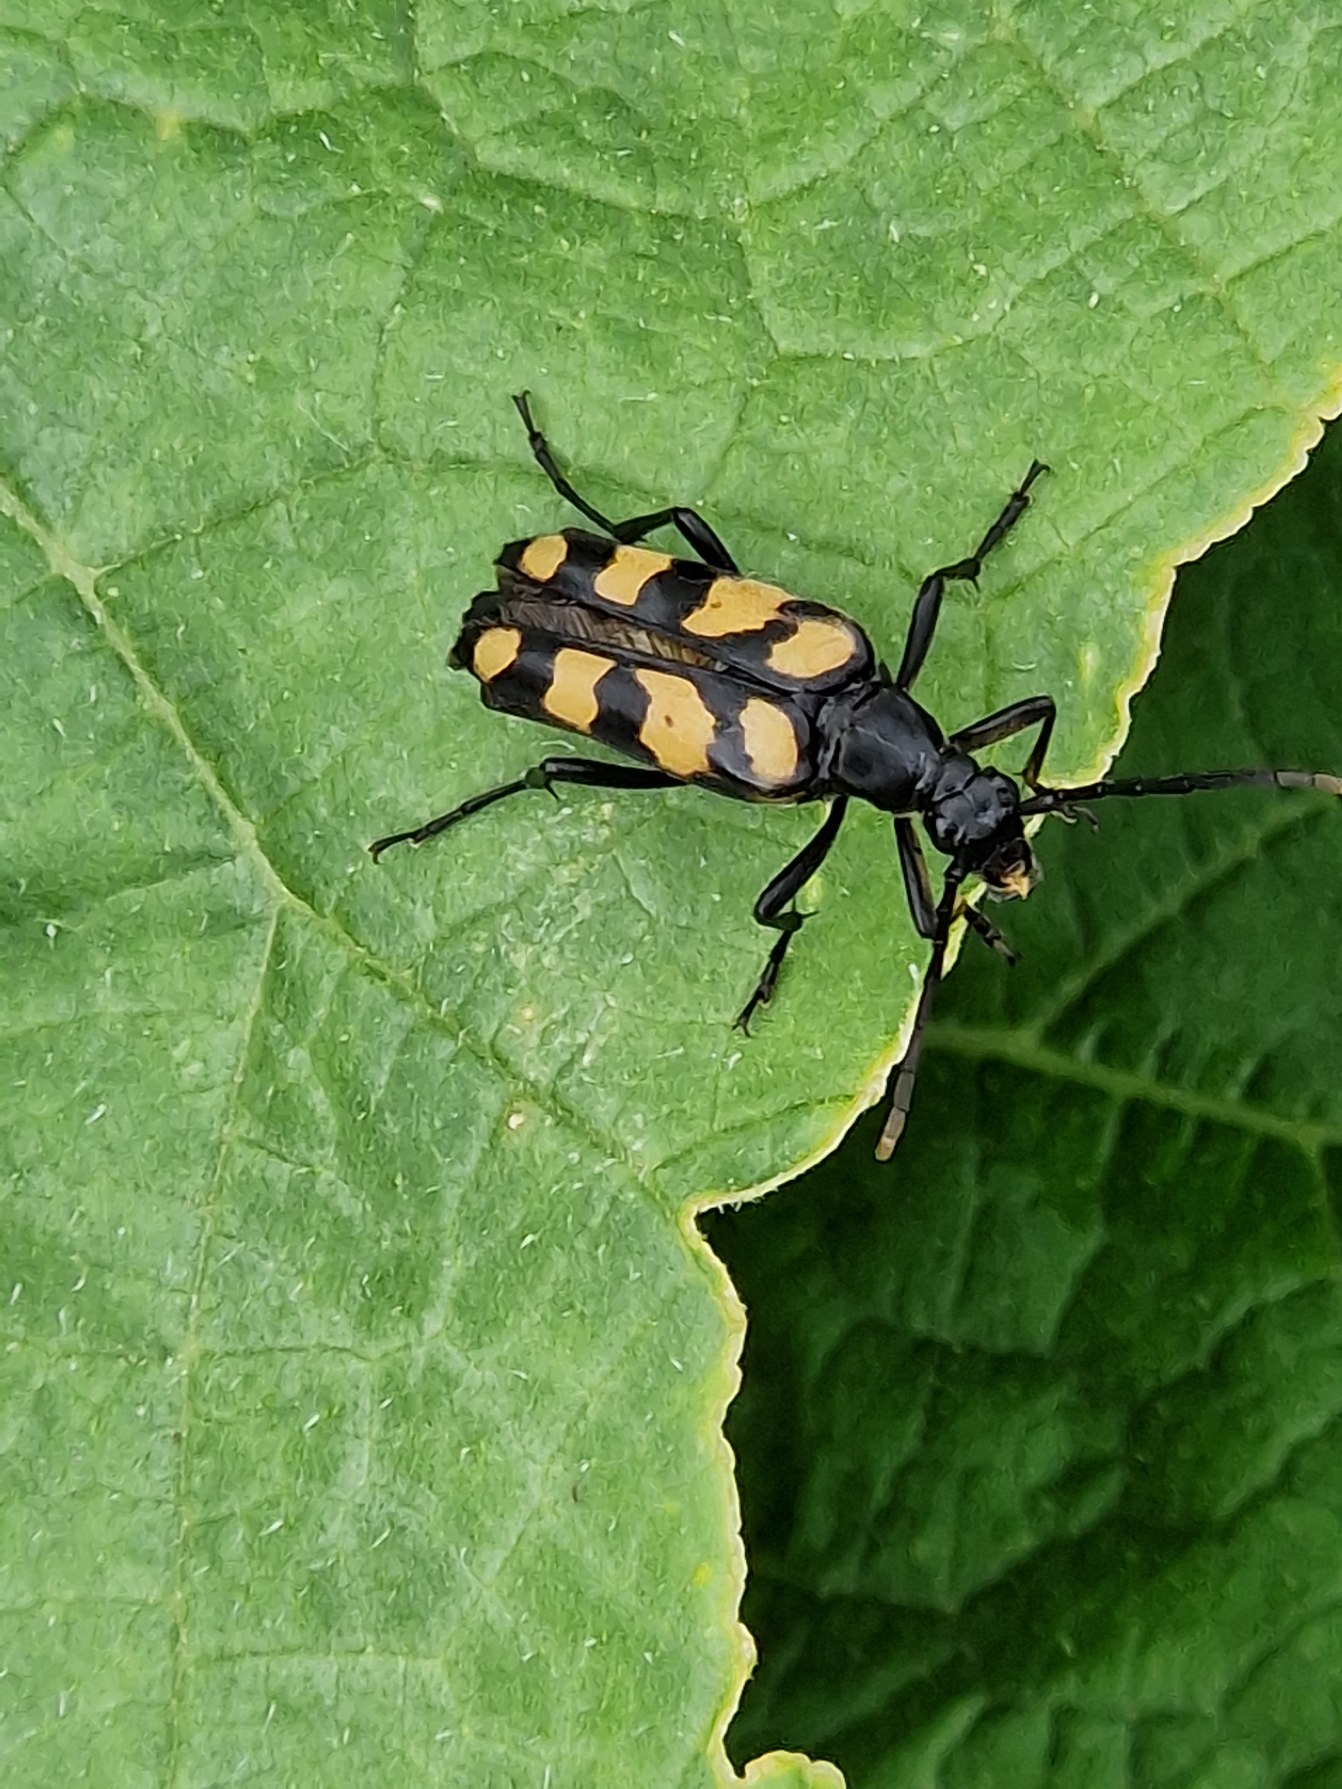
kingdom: Animalia
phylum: Arthropoda
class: Insecta
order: Coleoptera
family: Cerambycidae
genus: Leptura
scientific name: Leptura quadrifasciata
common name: Firebåndet blomsterbuk
